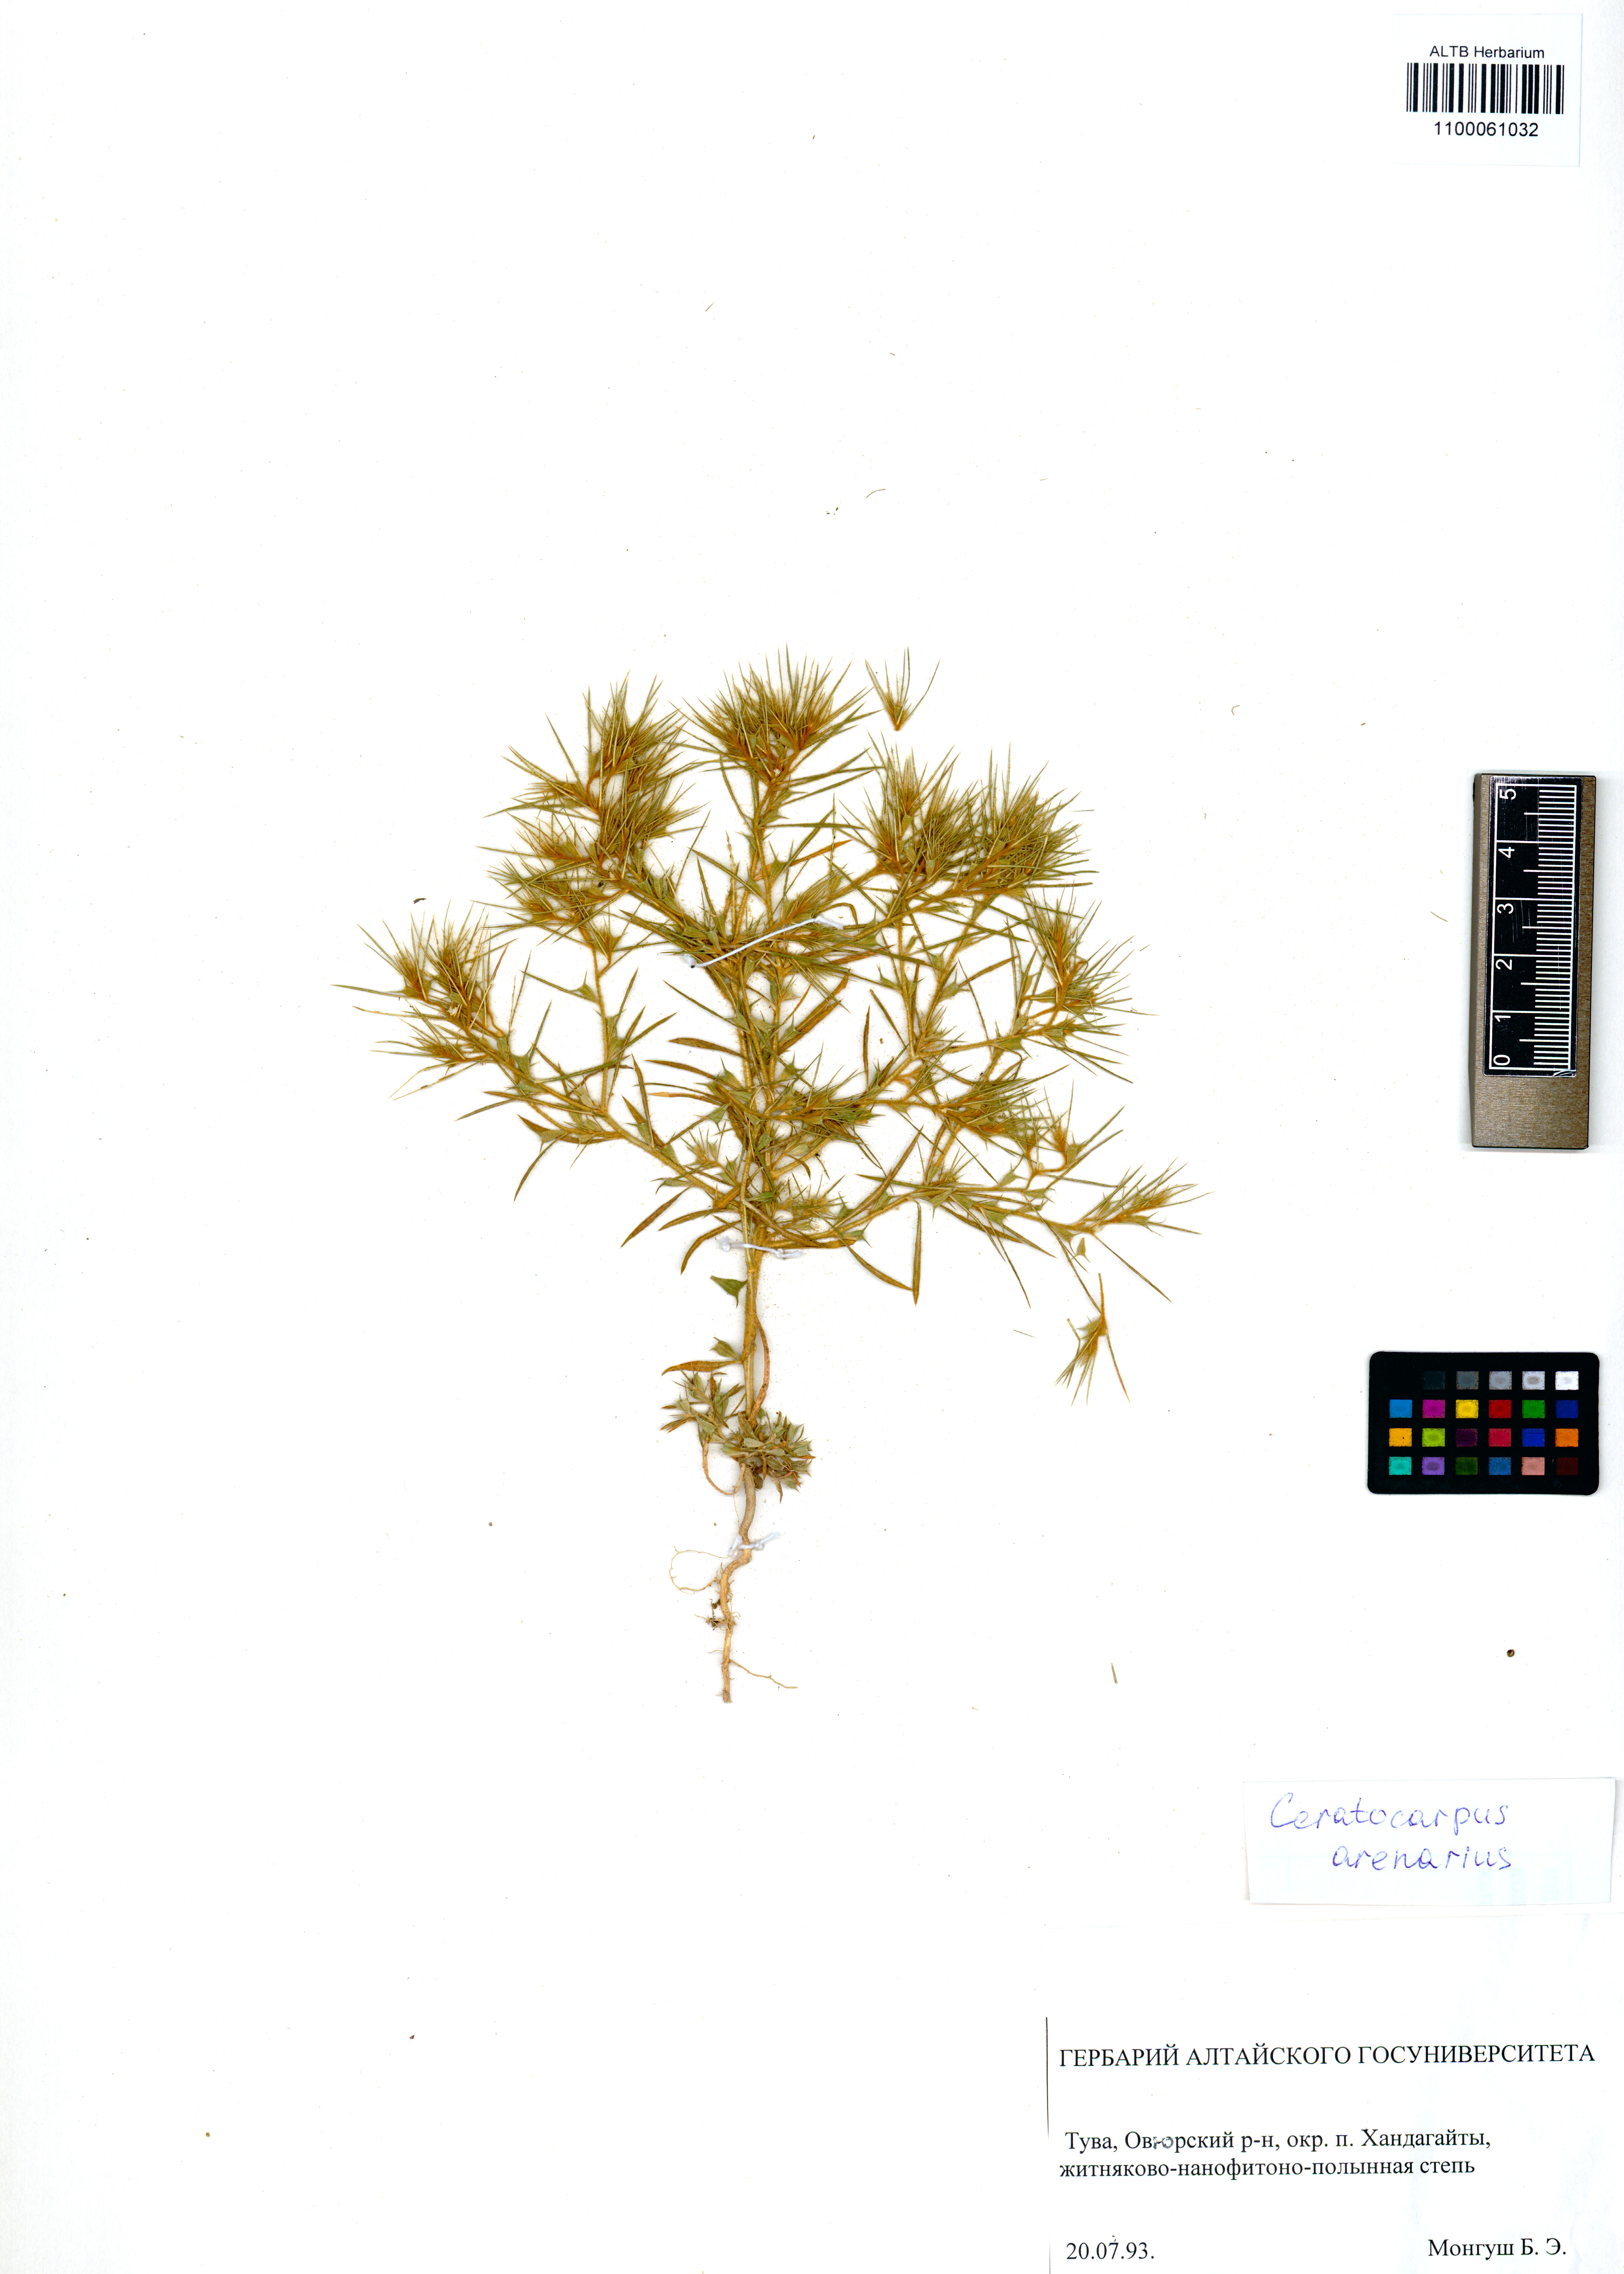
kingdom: Plantae
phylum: Tracheophyta
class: Magnoliopsida
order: Caryophyllales
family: Amaranthaceae
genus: Ceratocarpus
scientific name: Ceratocarpus arenarius
